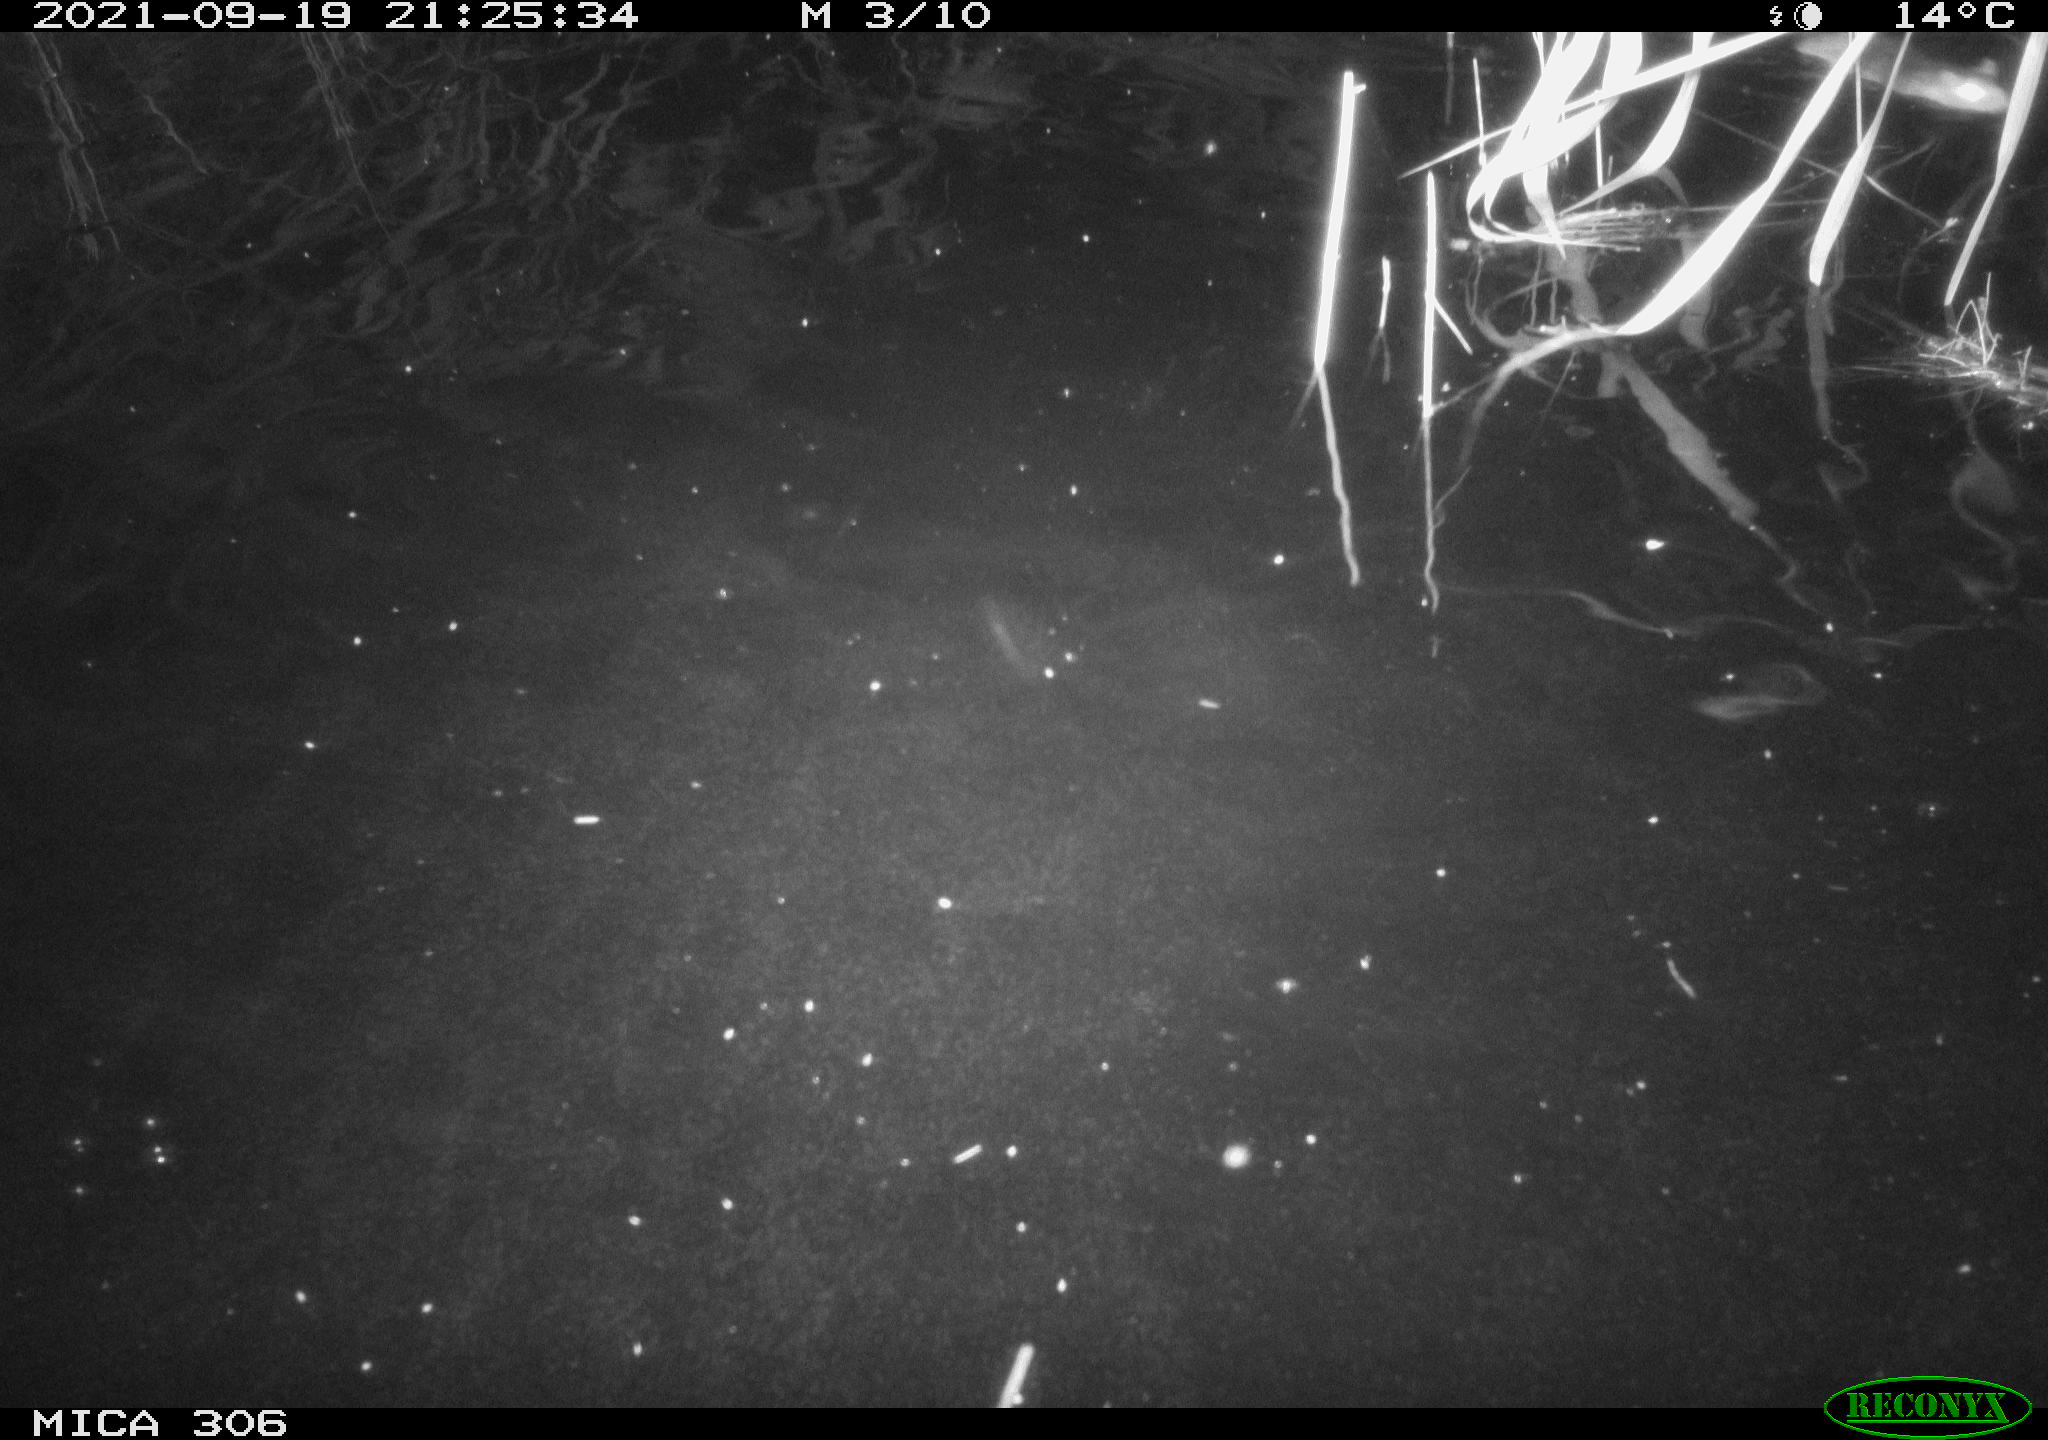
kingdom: Animalia
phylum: Chordata
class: Mammalia
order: Rodentia
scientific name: Rodentia
